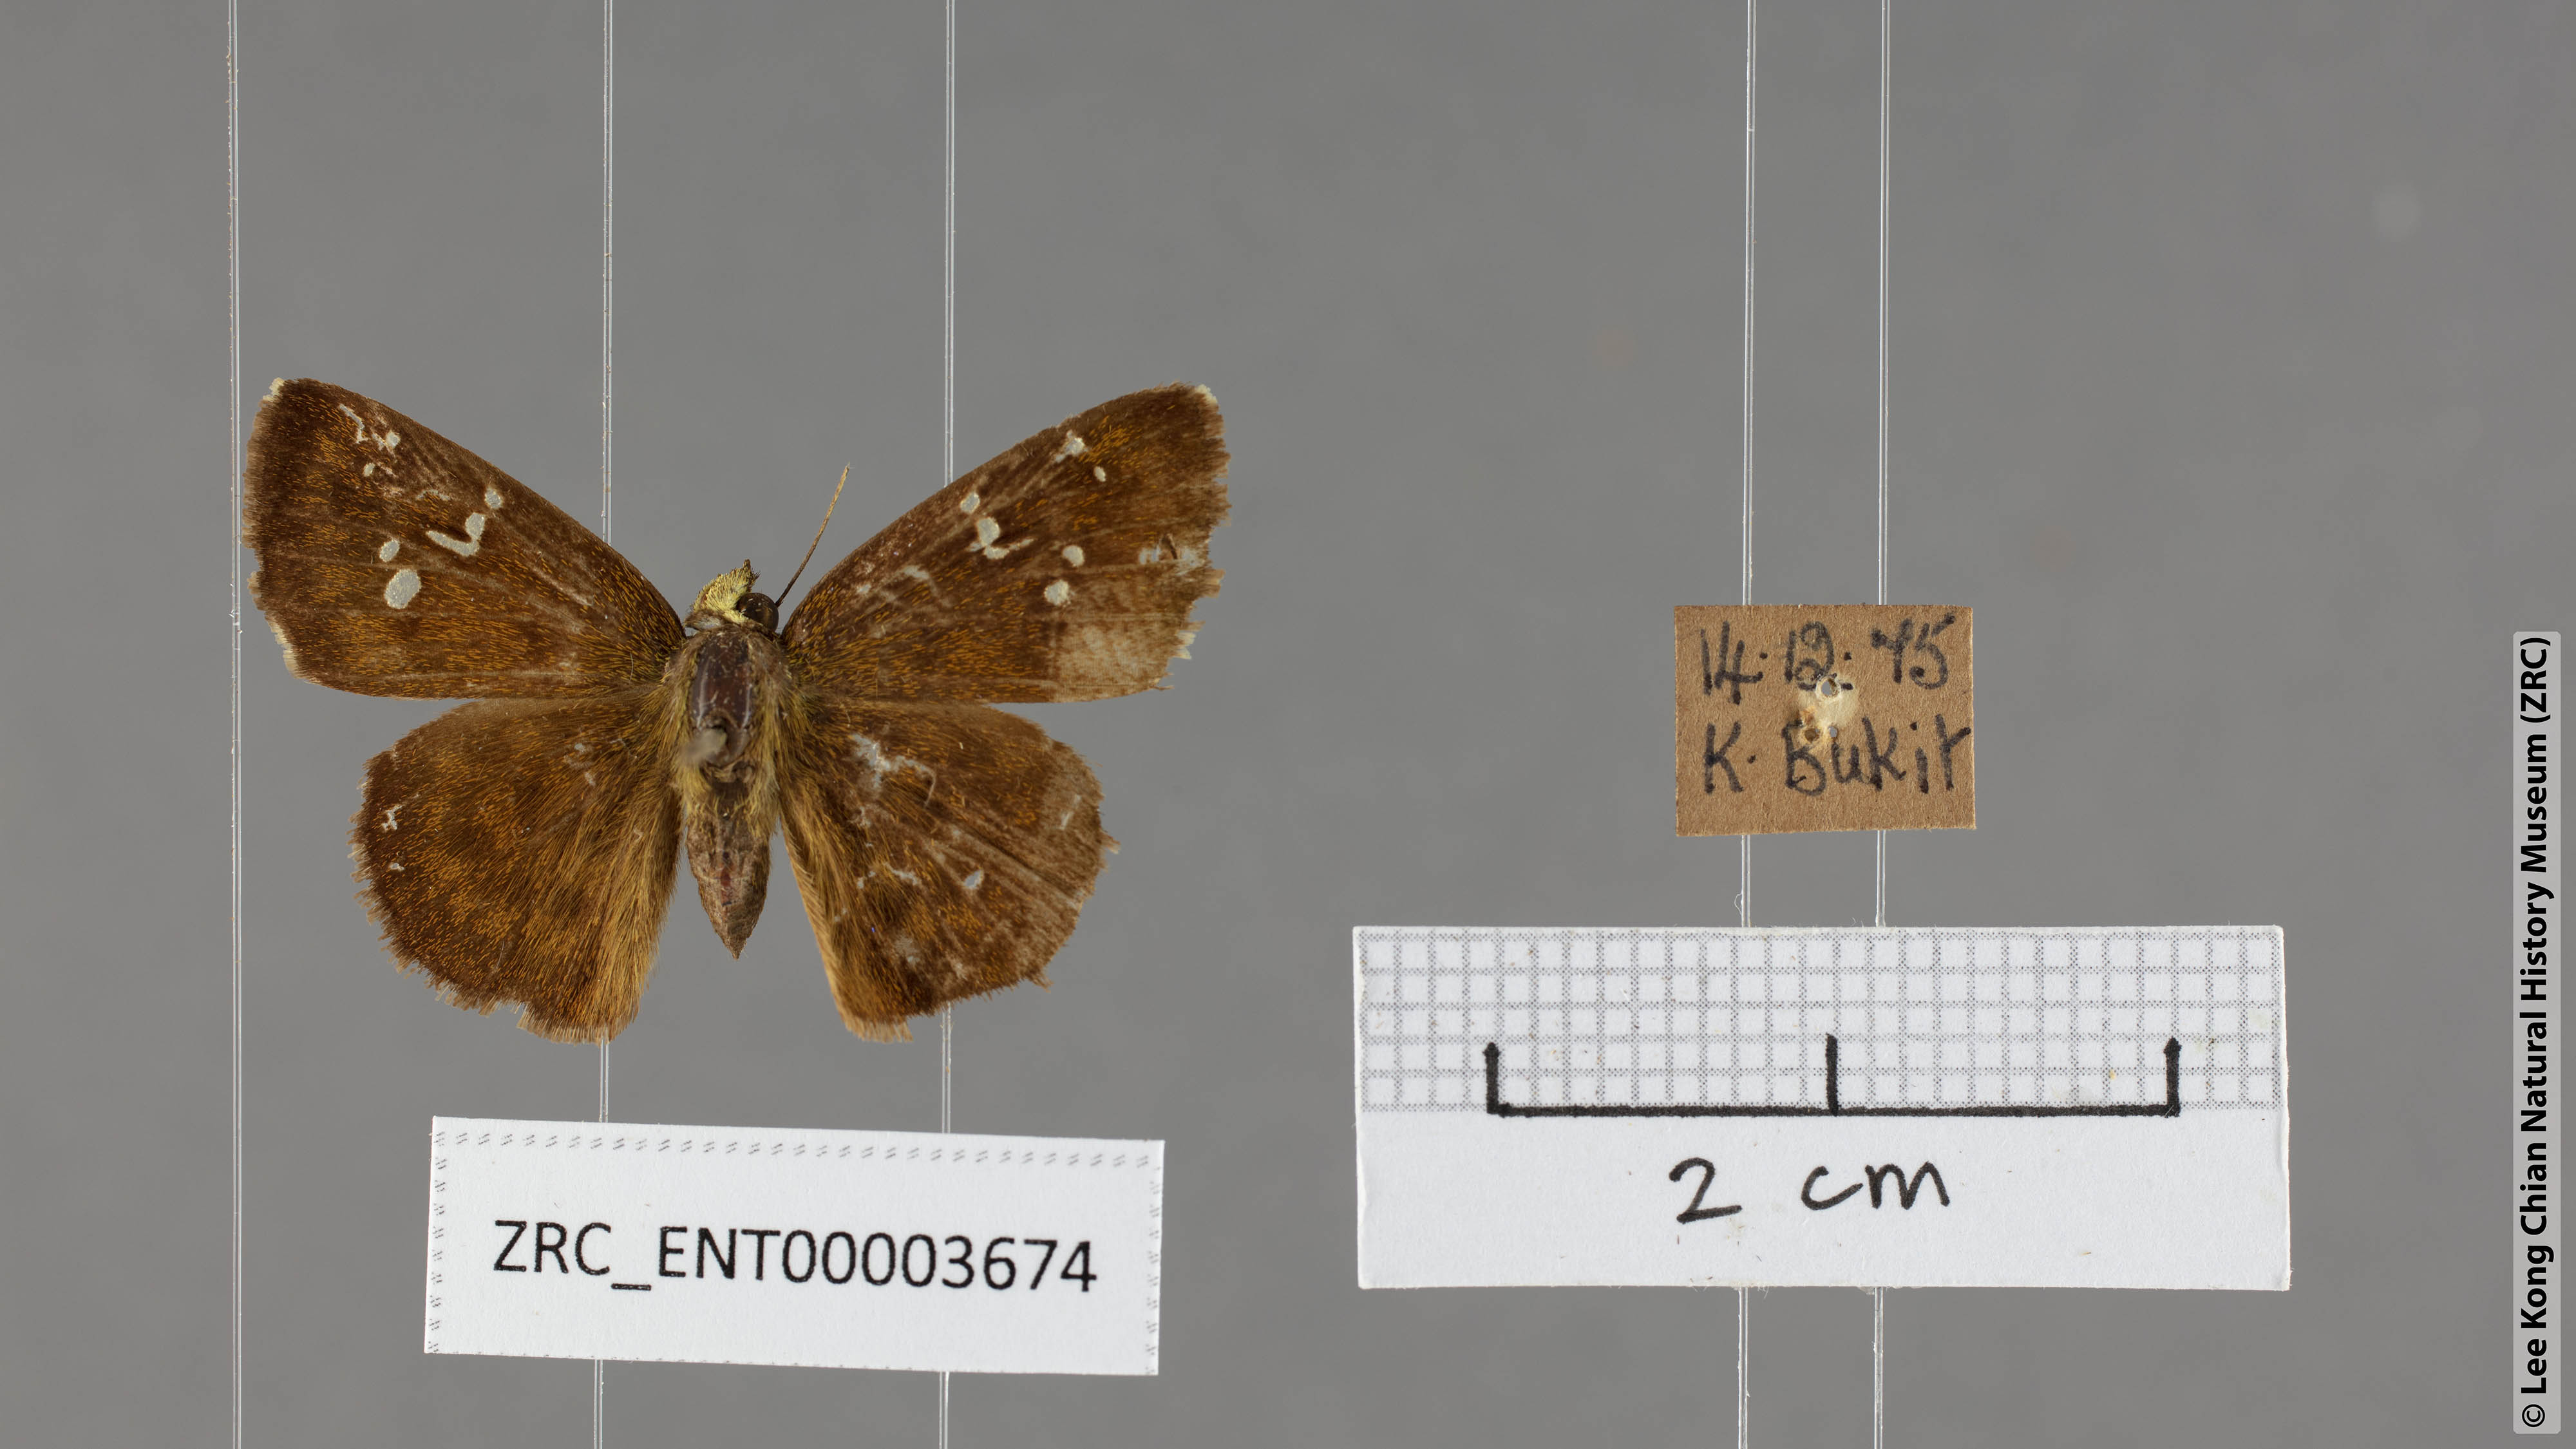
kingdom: Animalia
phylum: Arthropoda
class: Insecta
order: Lepidoptera
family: Hesperiidae
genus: Sarangesa
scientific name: Sarangesa dasahara
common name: Common small flat
